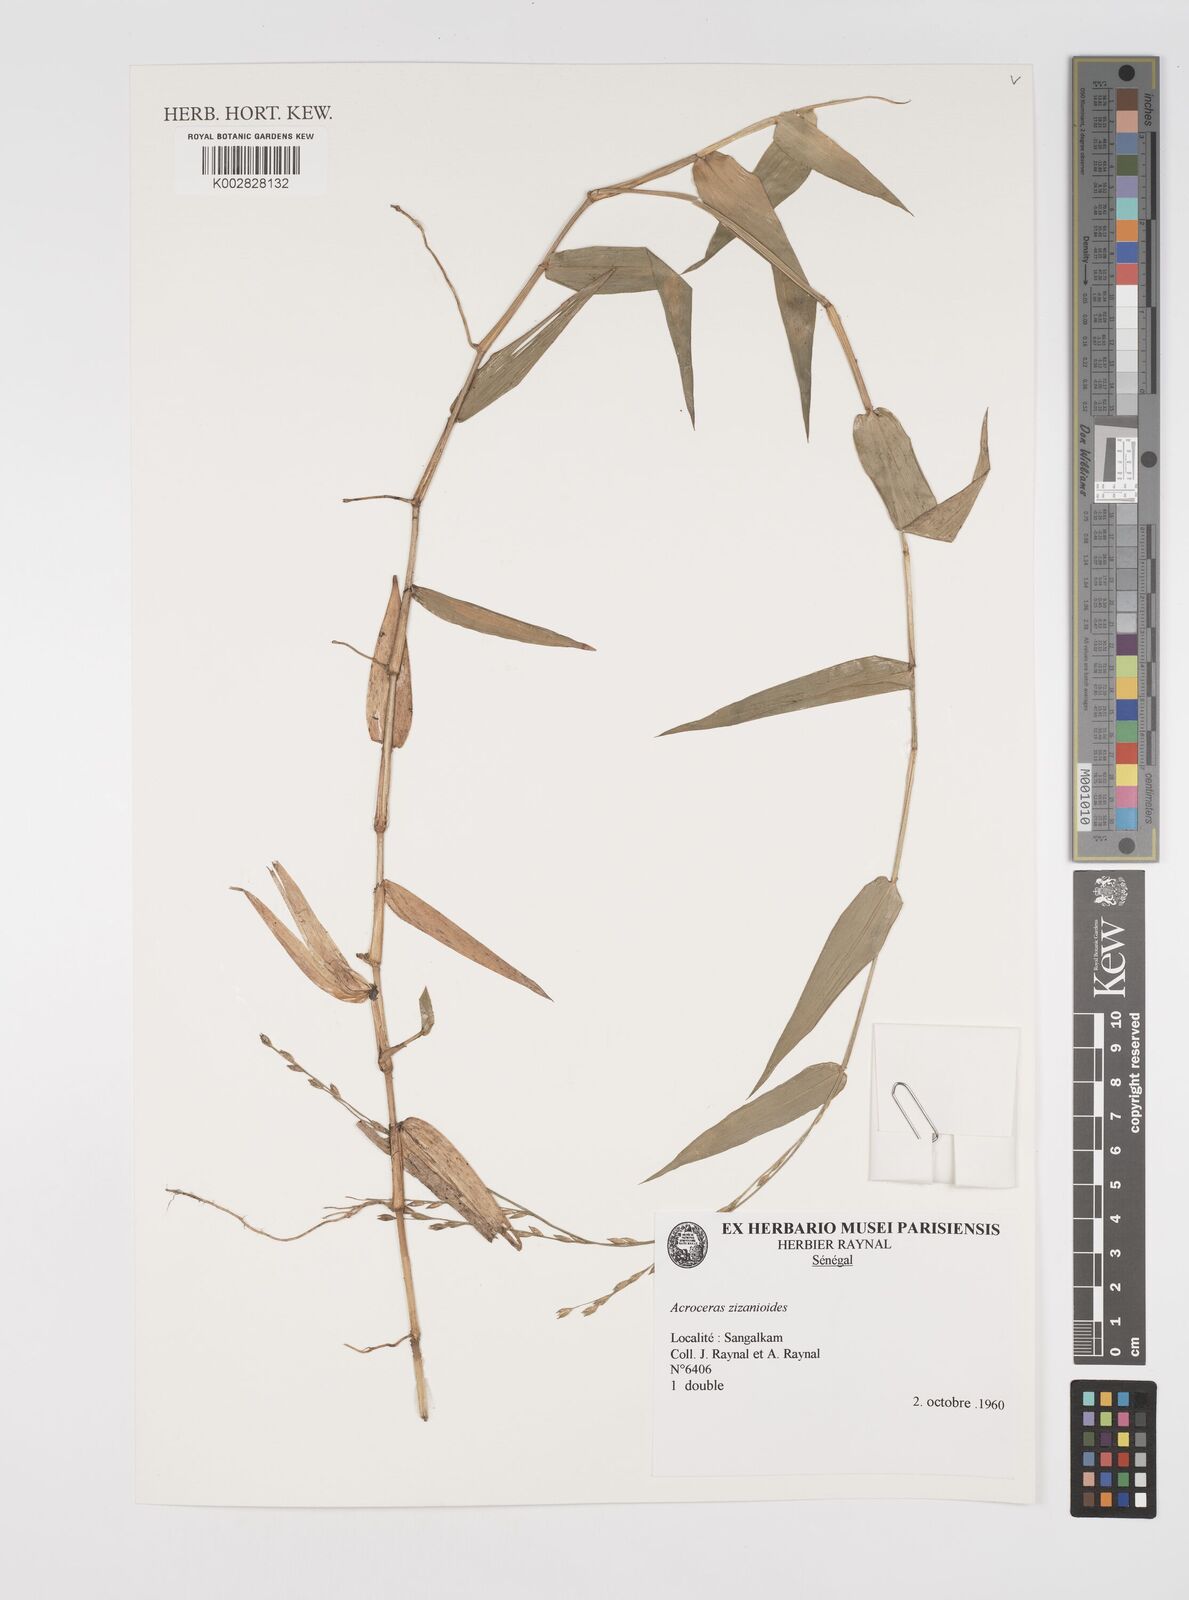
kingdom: Plantae
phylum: Tracheophyta
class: Liliopsida
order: Poales
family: Poaceae
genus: Acroceras
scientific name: Acroceras zizanioides
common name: Oat grass
